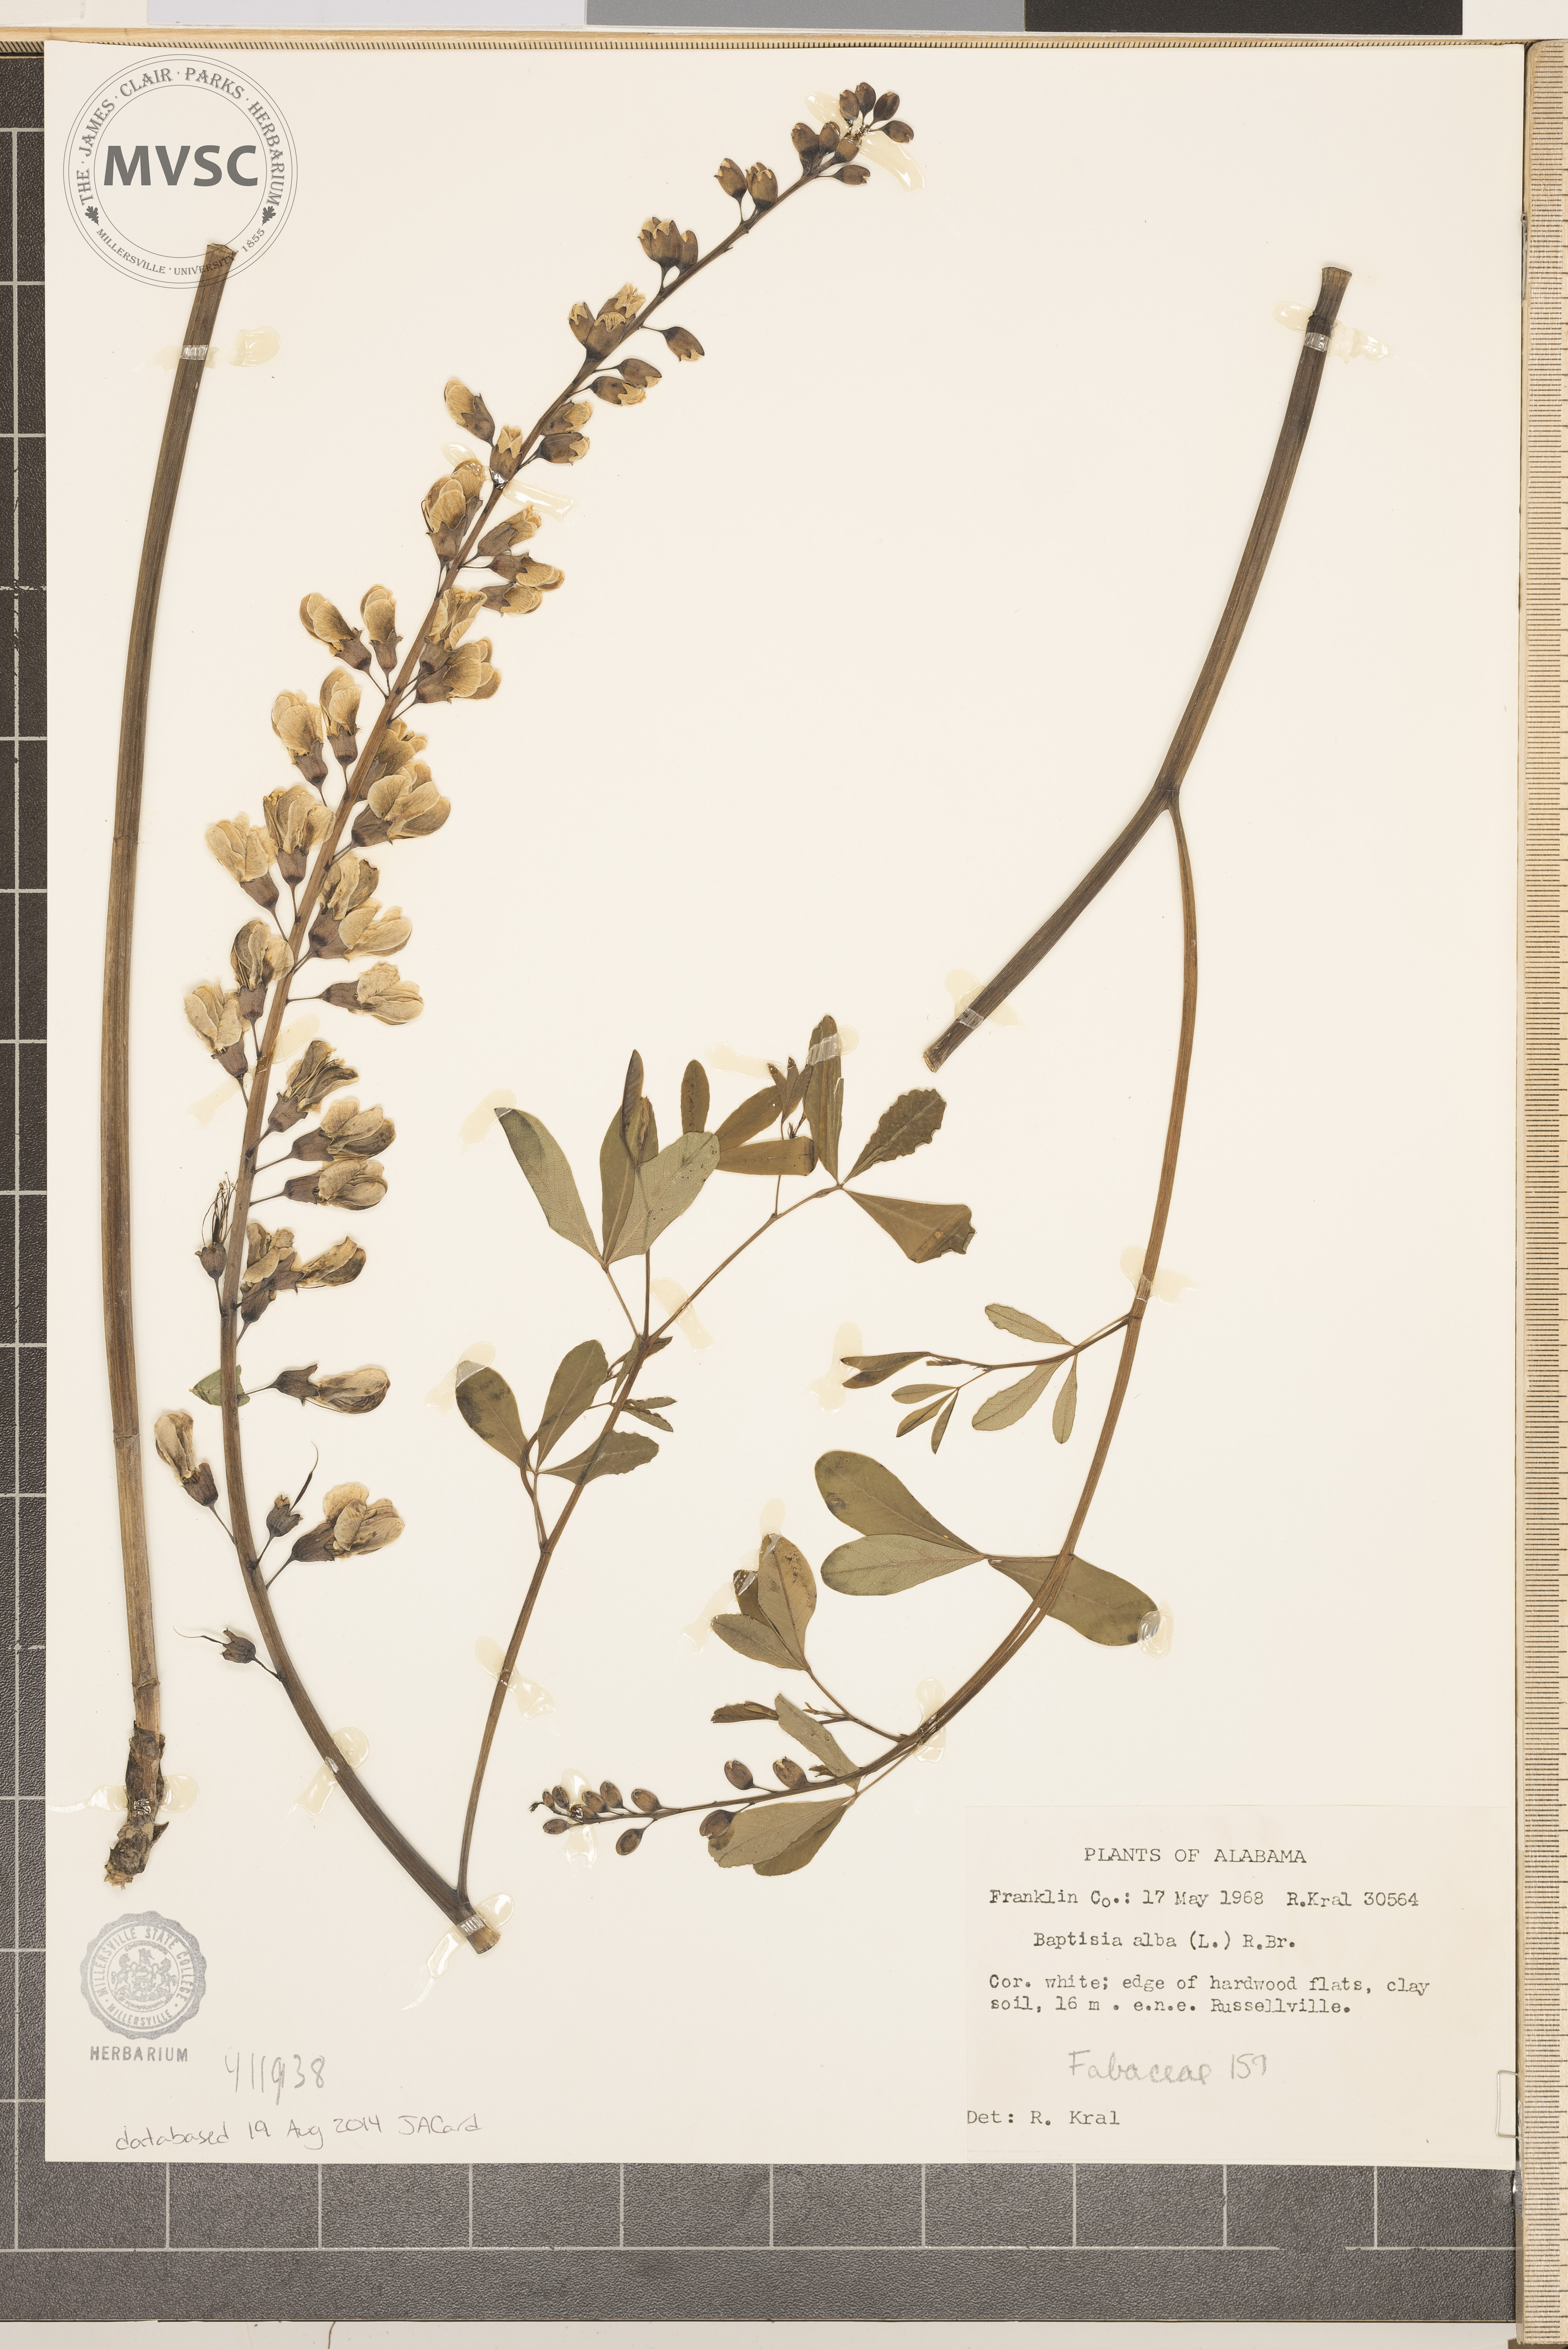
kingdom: Plantae
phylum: Tracheophyta
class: Magnoliopsida
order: Fabales
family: Fabaceae
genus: Baptisia
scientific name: Baptisia alba
